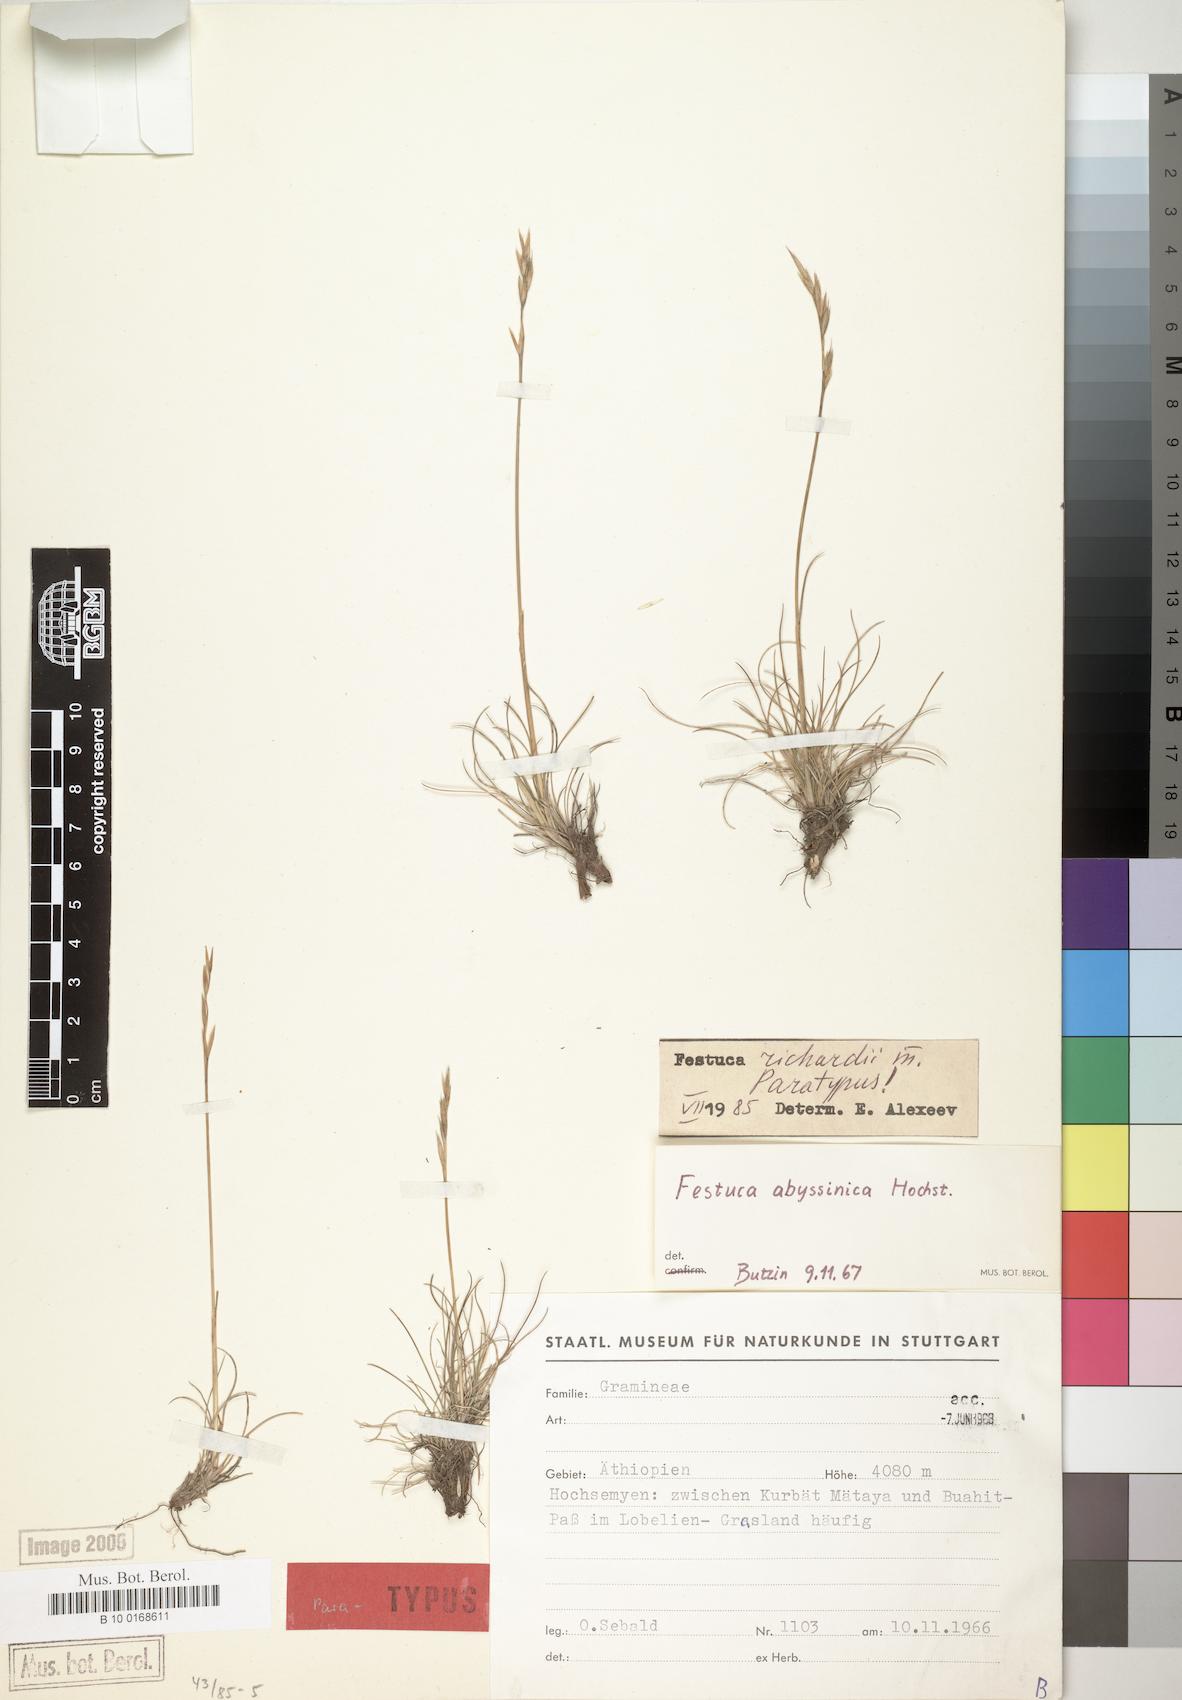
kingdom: Plantae
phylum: Tracheophyta
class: Liliopsida
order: Poales
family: Poaceae
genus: Festuca
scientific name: Festuca richardii
